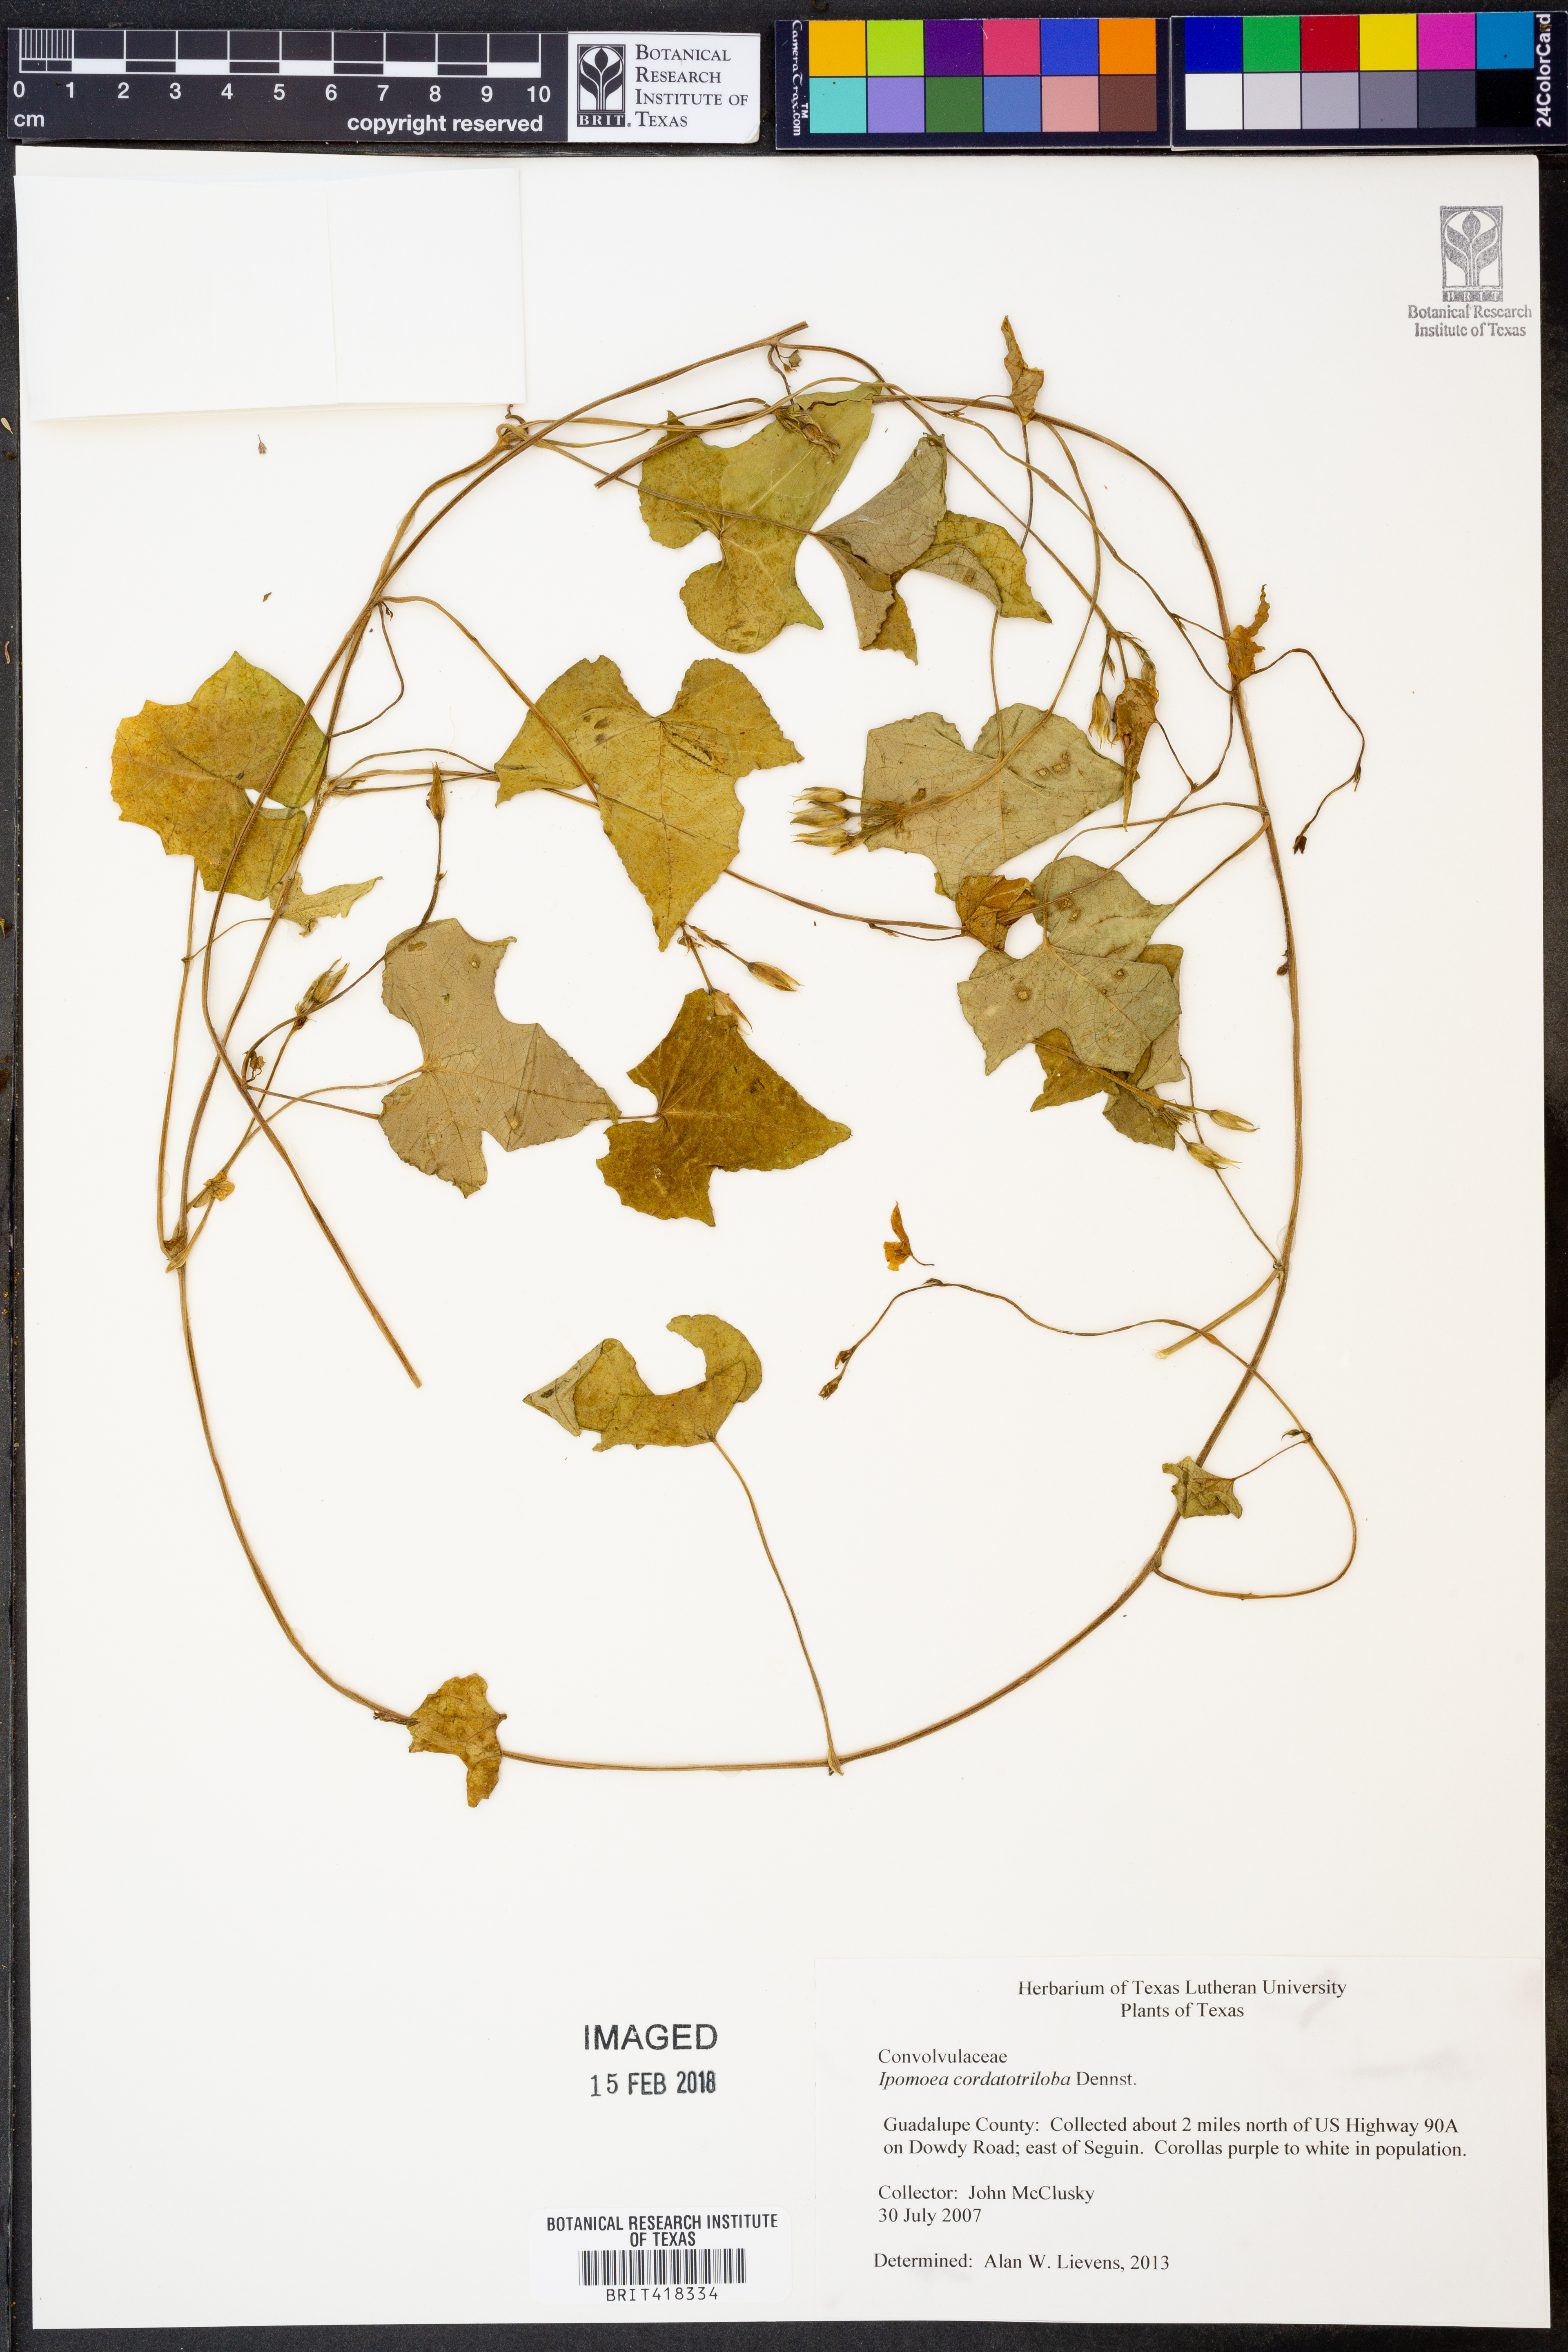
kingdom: Plantae
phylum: Tracheophyta
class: Magnoliopsida
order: Solanales
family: Convolvulaceae
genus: Ipomoea
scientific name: Ipomoea cordatotriloba
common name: Cotton morning glory
